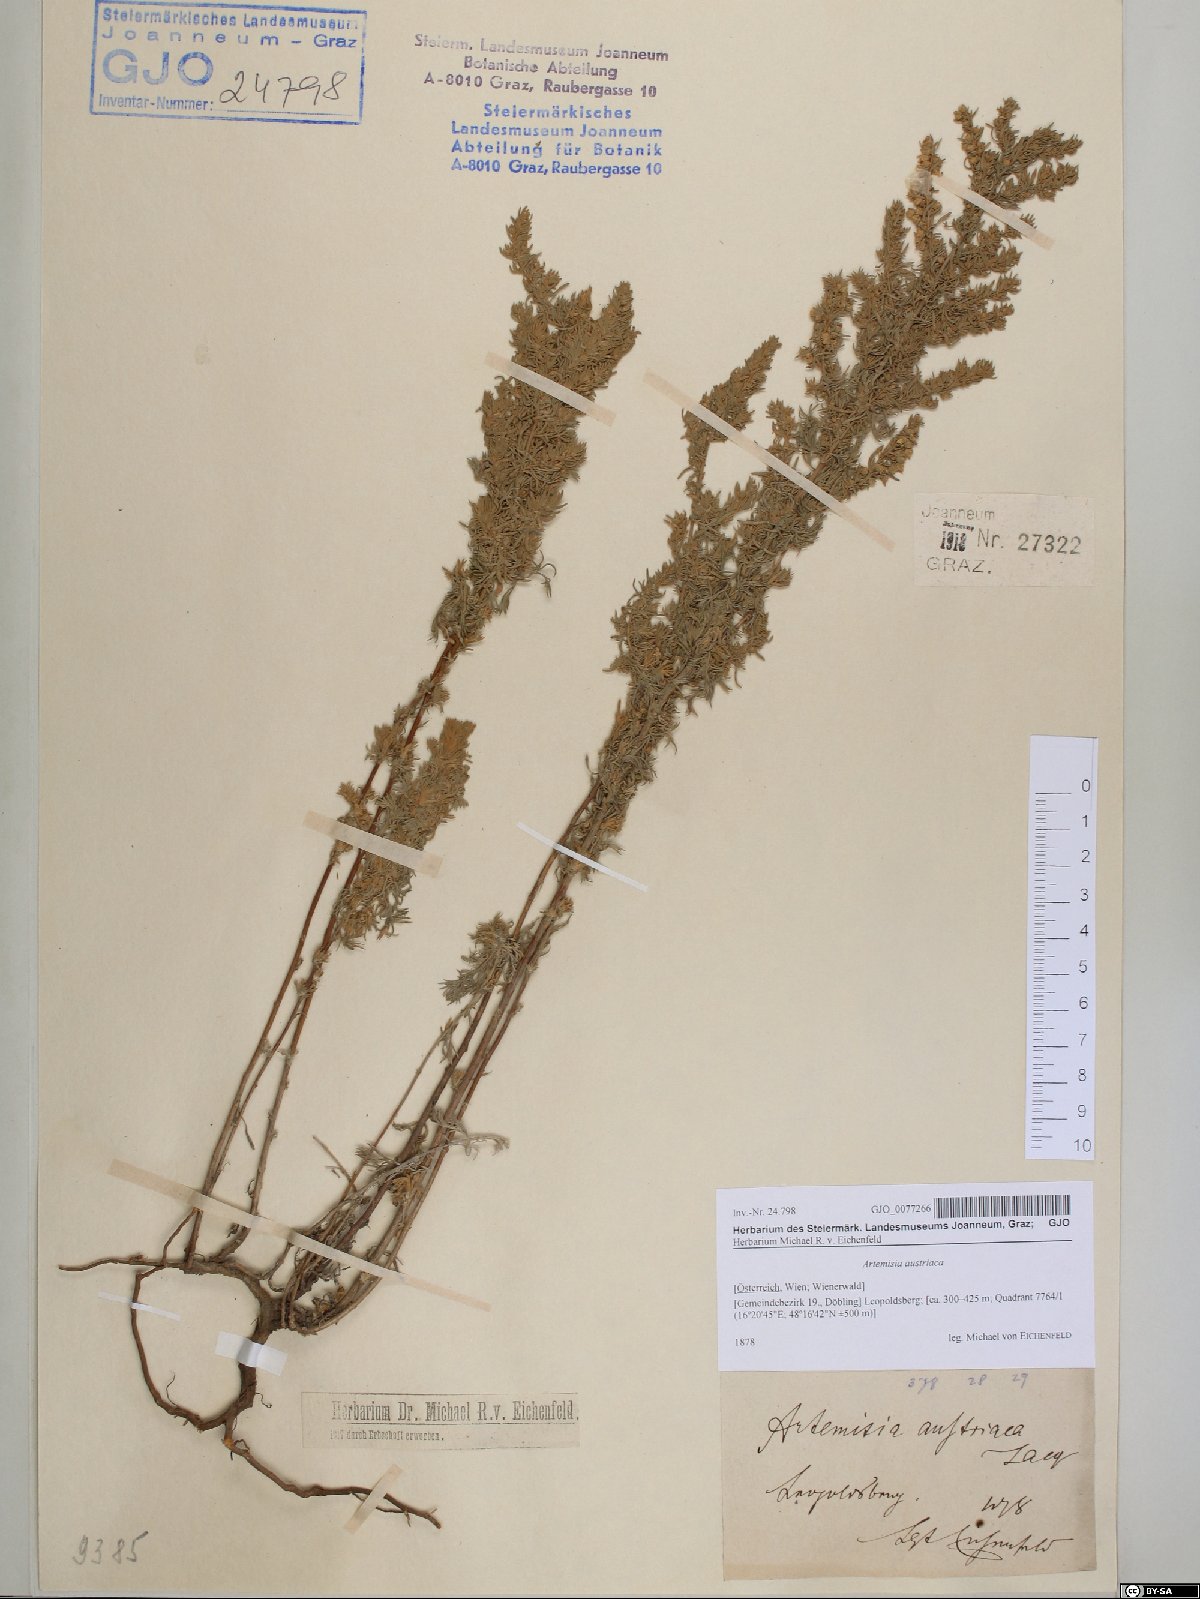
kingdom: Plantae
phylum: Tracheophyta
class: Magnoliopsida
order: Asterales
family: Asteraceae
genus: Artemisia
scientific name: Artemisia austriaca
